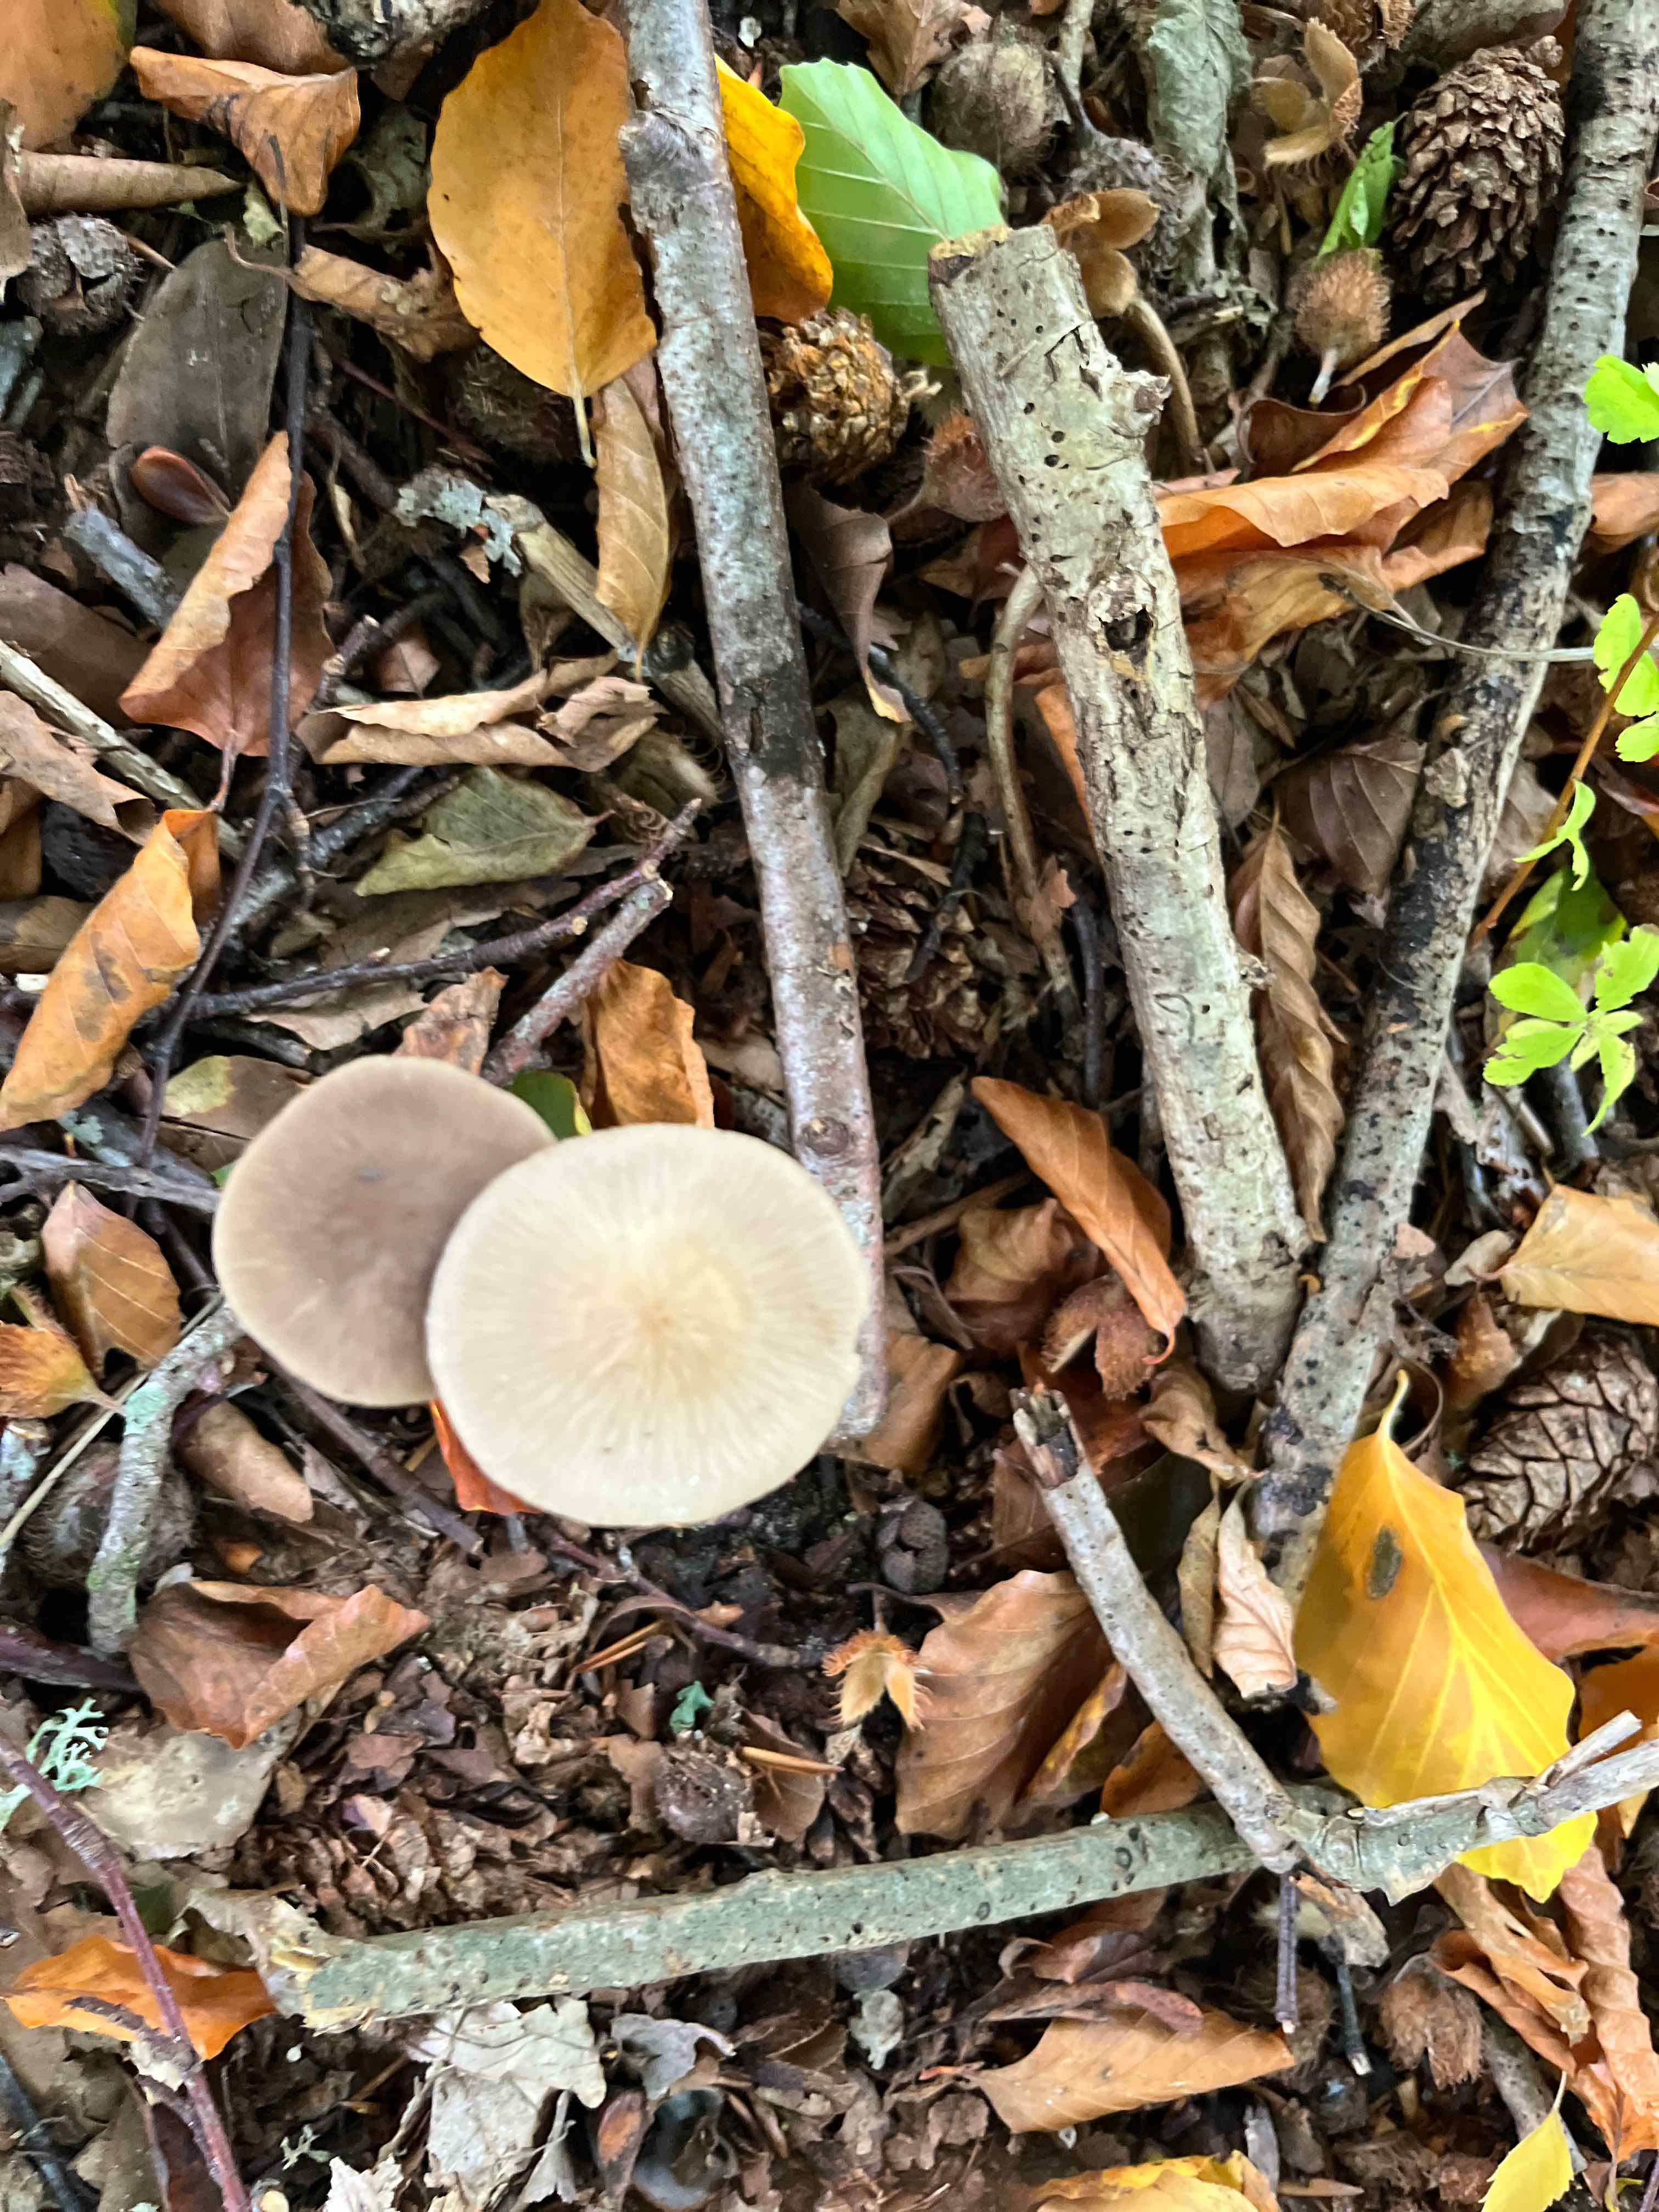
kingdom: Fungi
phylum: Basidiomycota
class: Agaricomycetes
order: Agaricales
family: Omphalotaceae
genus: Mycetinis
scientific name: Mycetinis alliaceus
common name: stor løghat
